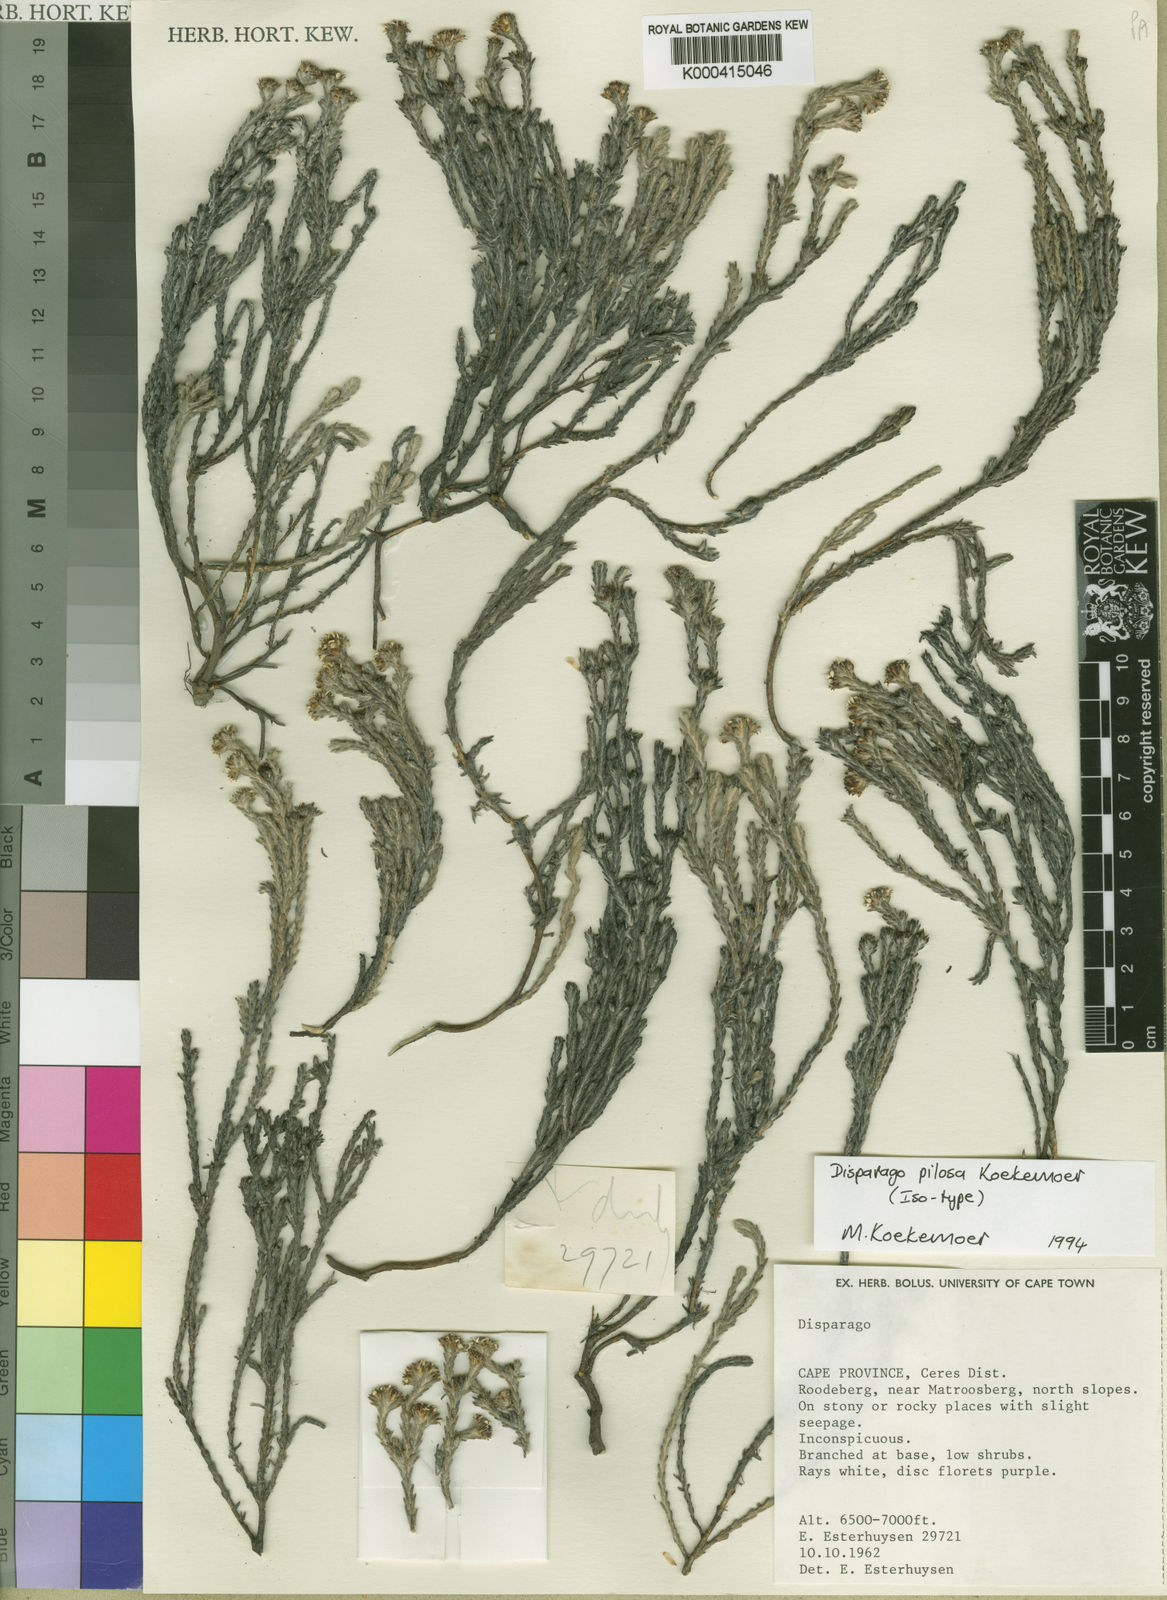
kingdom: Plantae
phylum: Tracheophyta
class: Magnoliopsida
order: Asterales
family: Asteraceae
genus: Disparago
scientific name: Disparago pilosa
